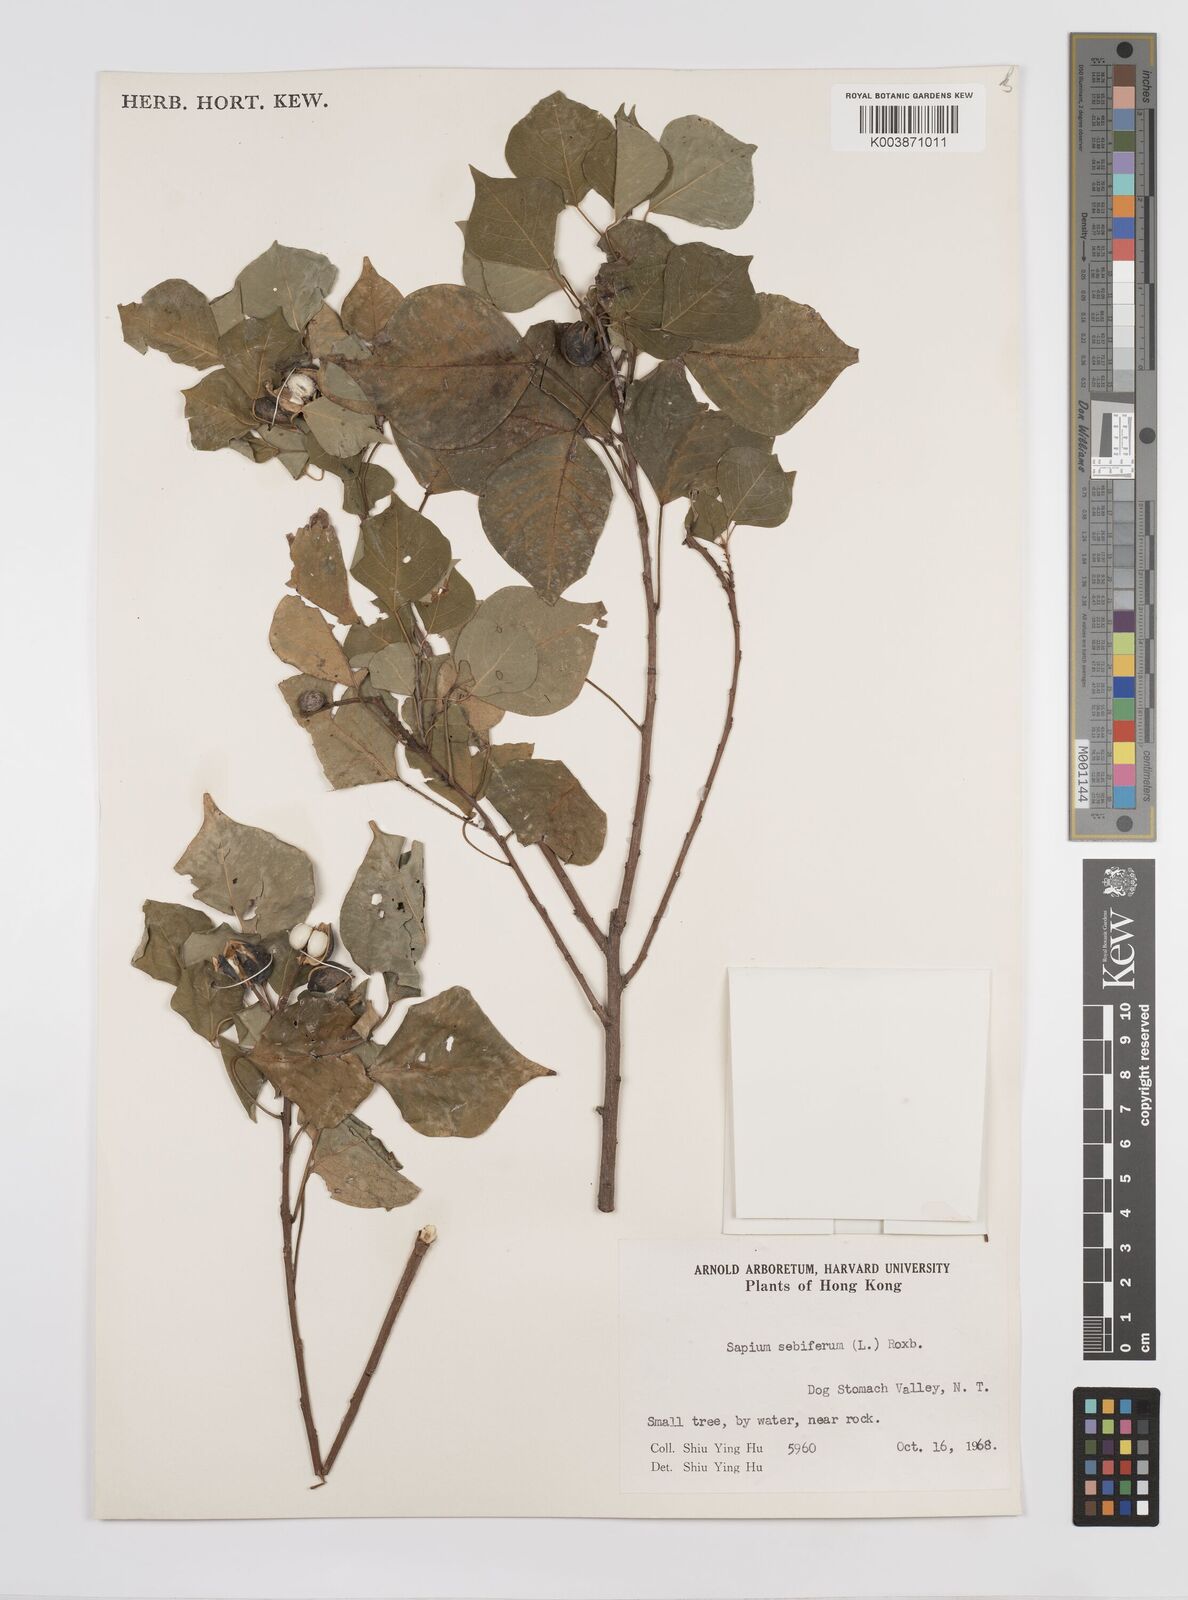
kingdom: Plantae
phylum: Tracheophyta
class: Magnoliopsida
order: Malpighiales
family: Euphorbiaceae
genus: Triadica
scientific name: Triadica sebifera
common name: Chinese tallow
